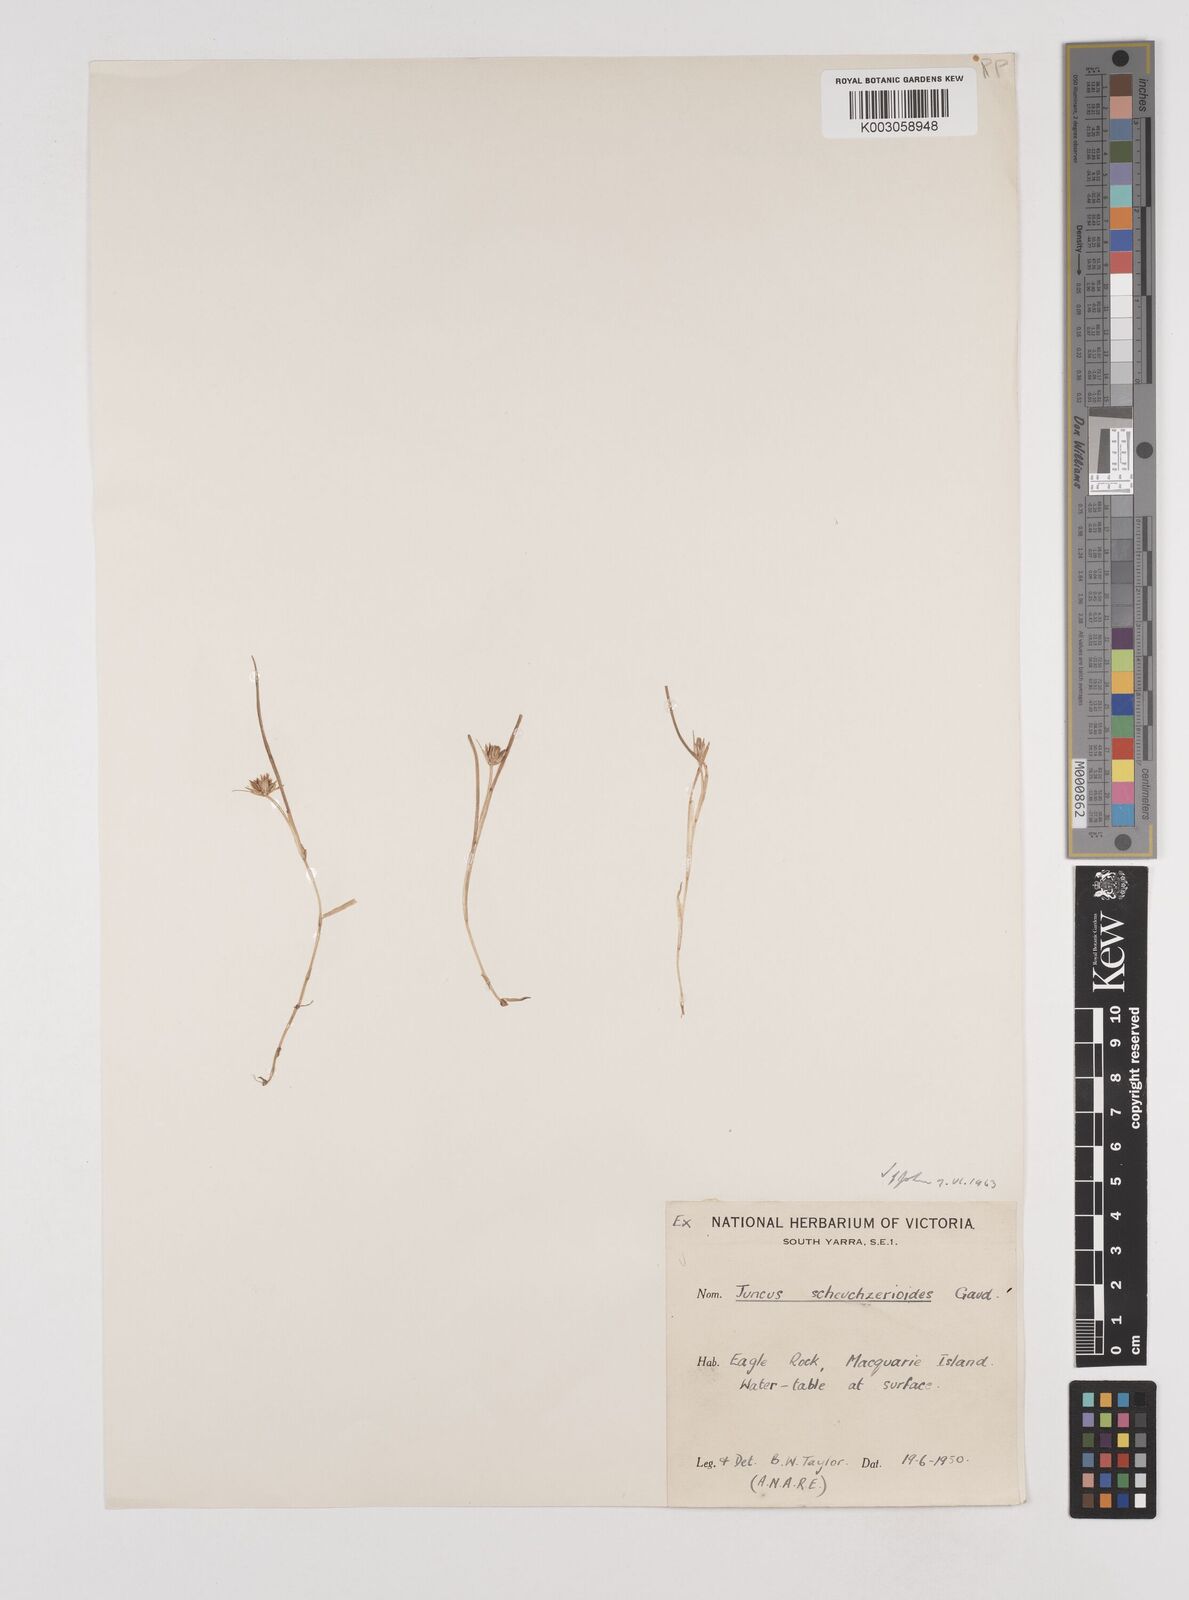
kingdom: Plantae
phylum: Tracheophyta
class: Liliopsida
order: Poales
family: Juncaceae
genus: Juncus
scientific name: Juncus scheuchzerioides
